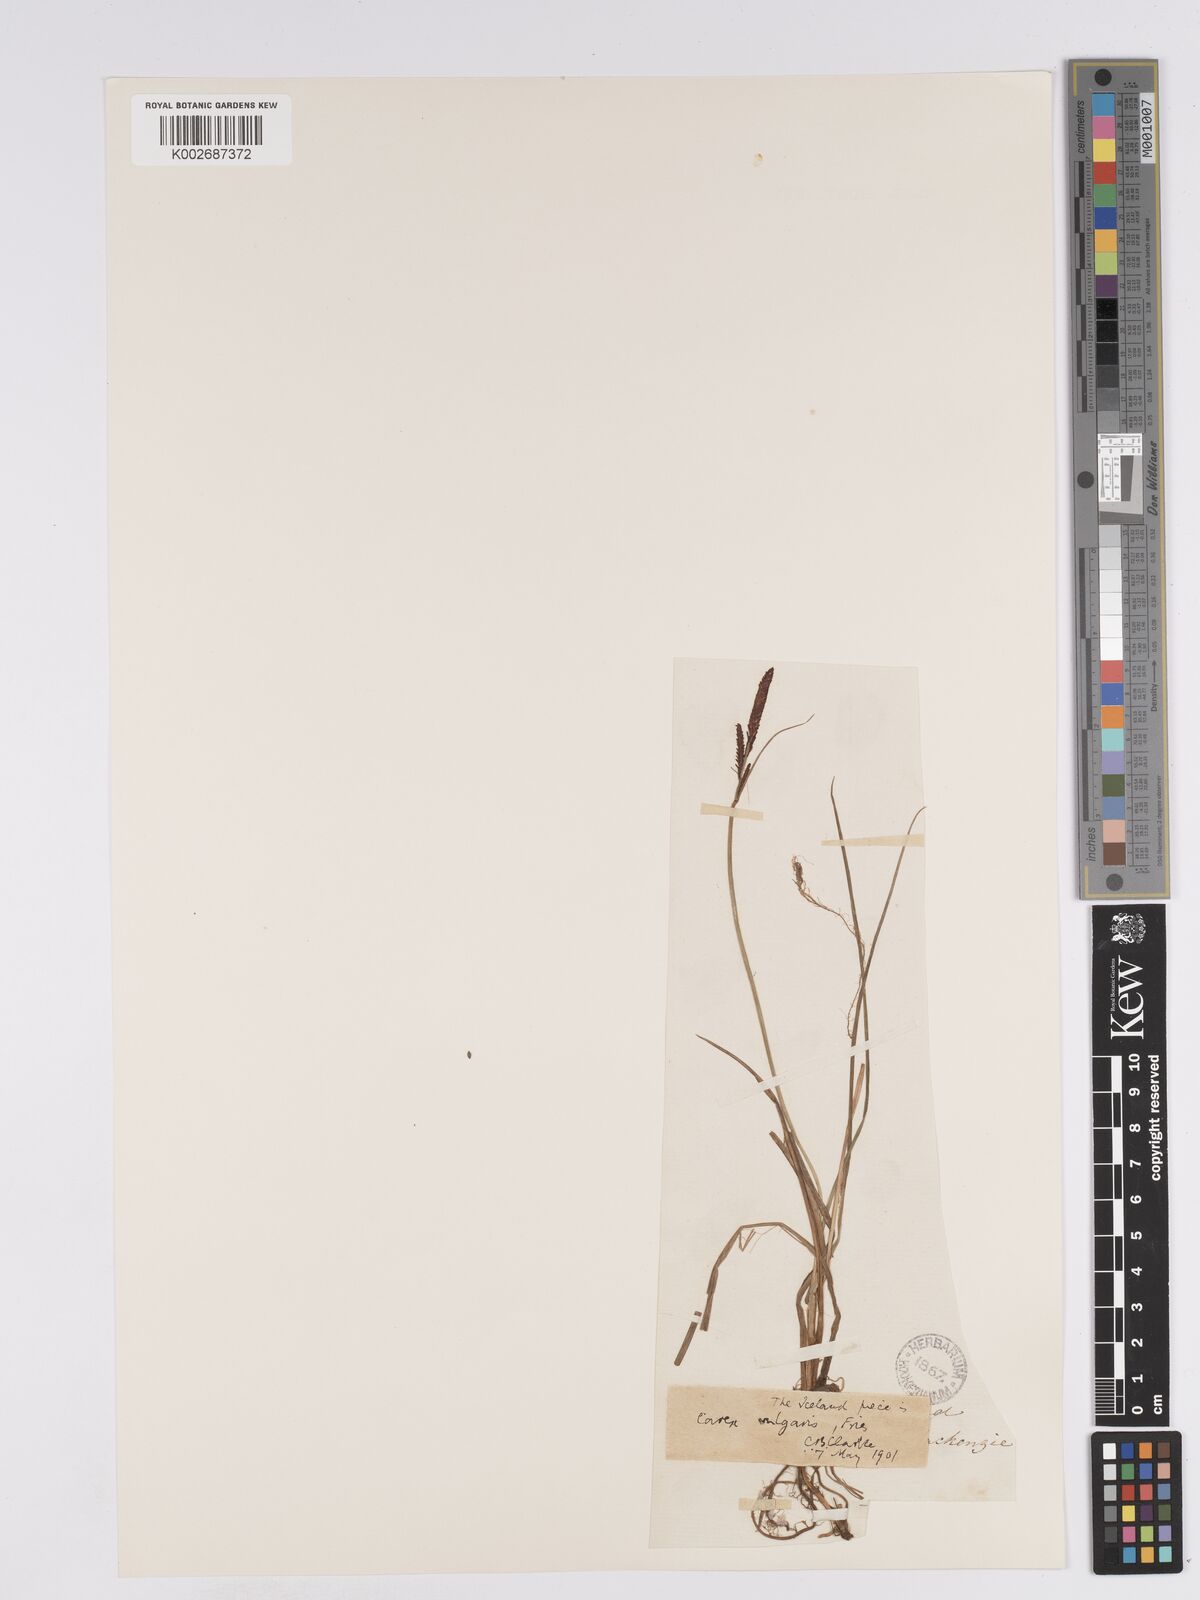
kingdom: Plantae
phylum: Tracheophyta
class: Liliopsida
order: Poales
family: Cyperaceae
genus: Carex
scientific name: Carex nigra
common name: Common sedge
